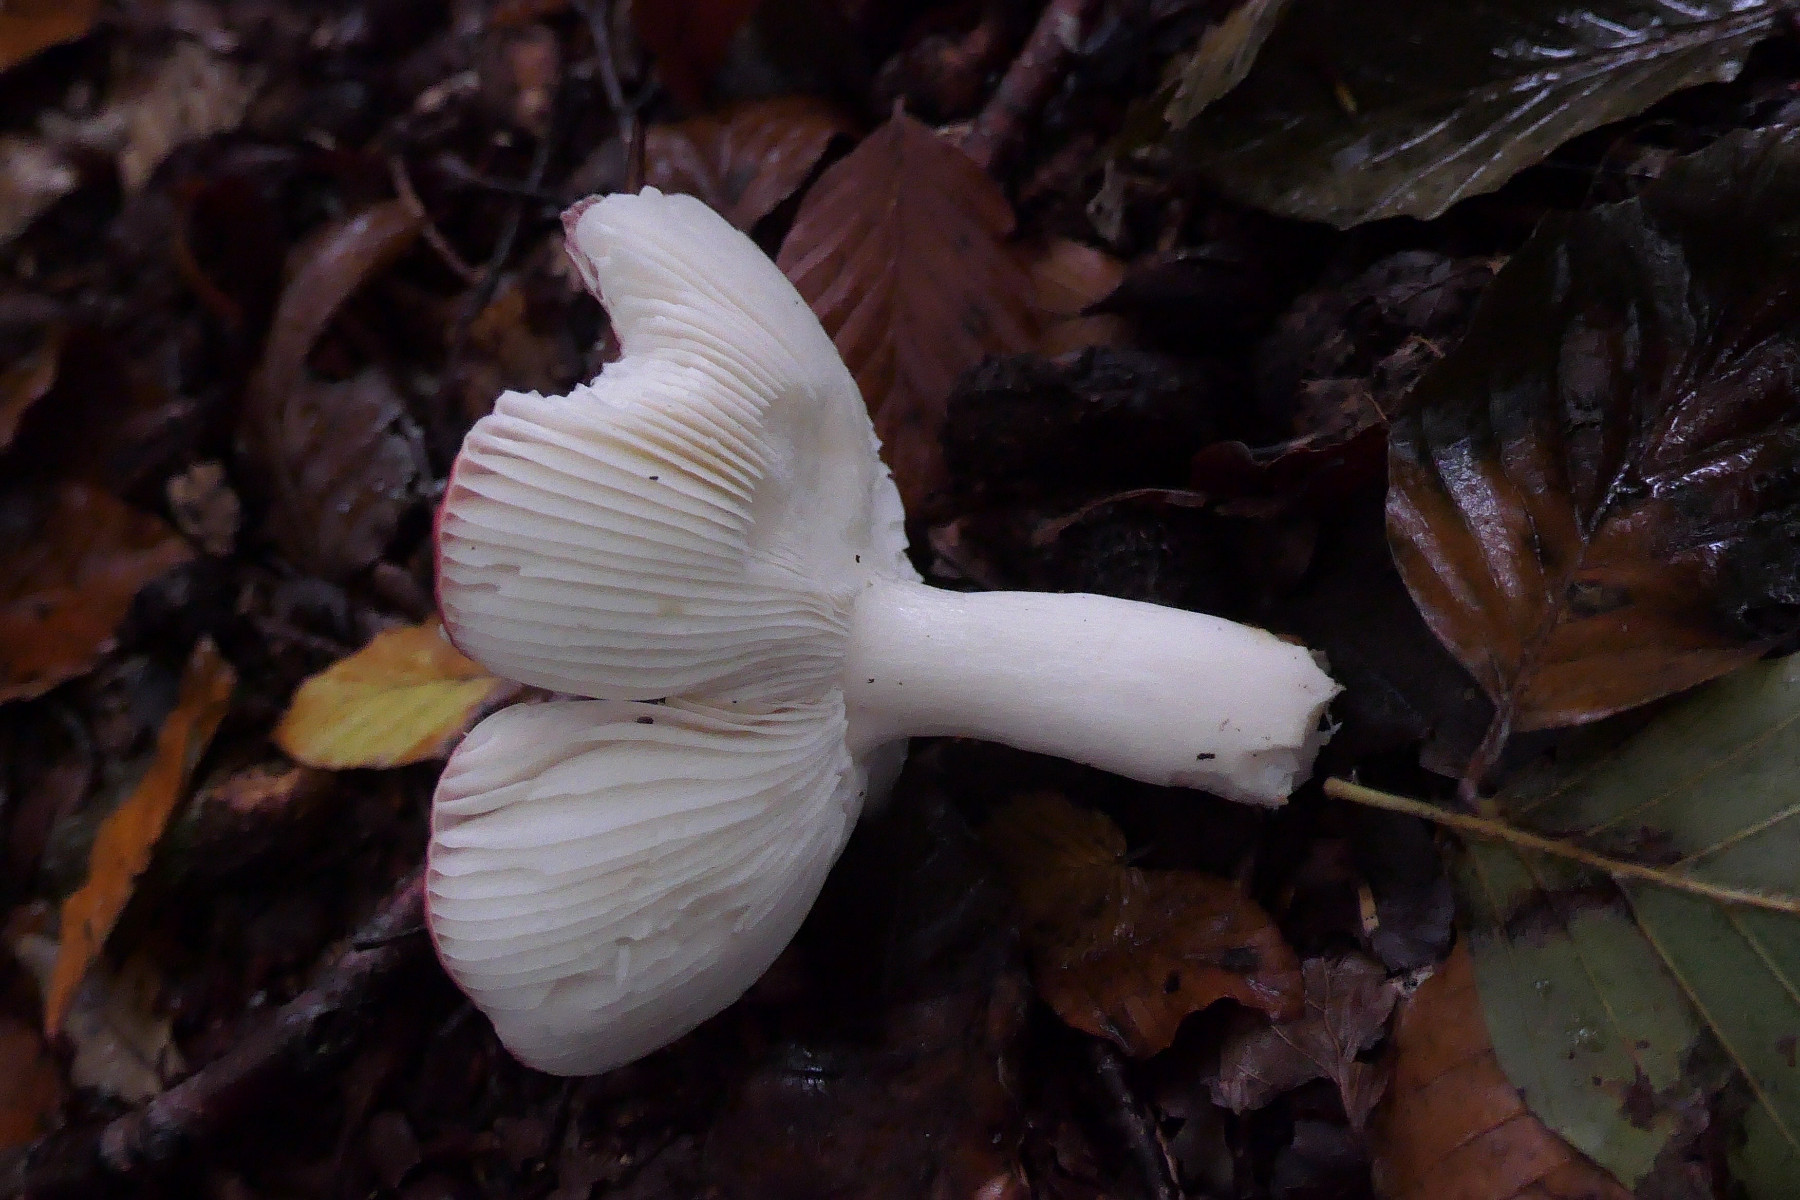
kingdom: Fungi
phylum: Basidiomycota
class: Agaricomycetes
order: Russulales
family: Russulaceae
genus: Russula
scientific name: Russula silvestris
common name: mellemstor gift-skørhat
